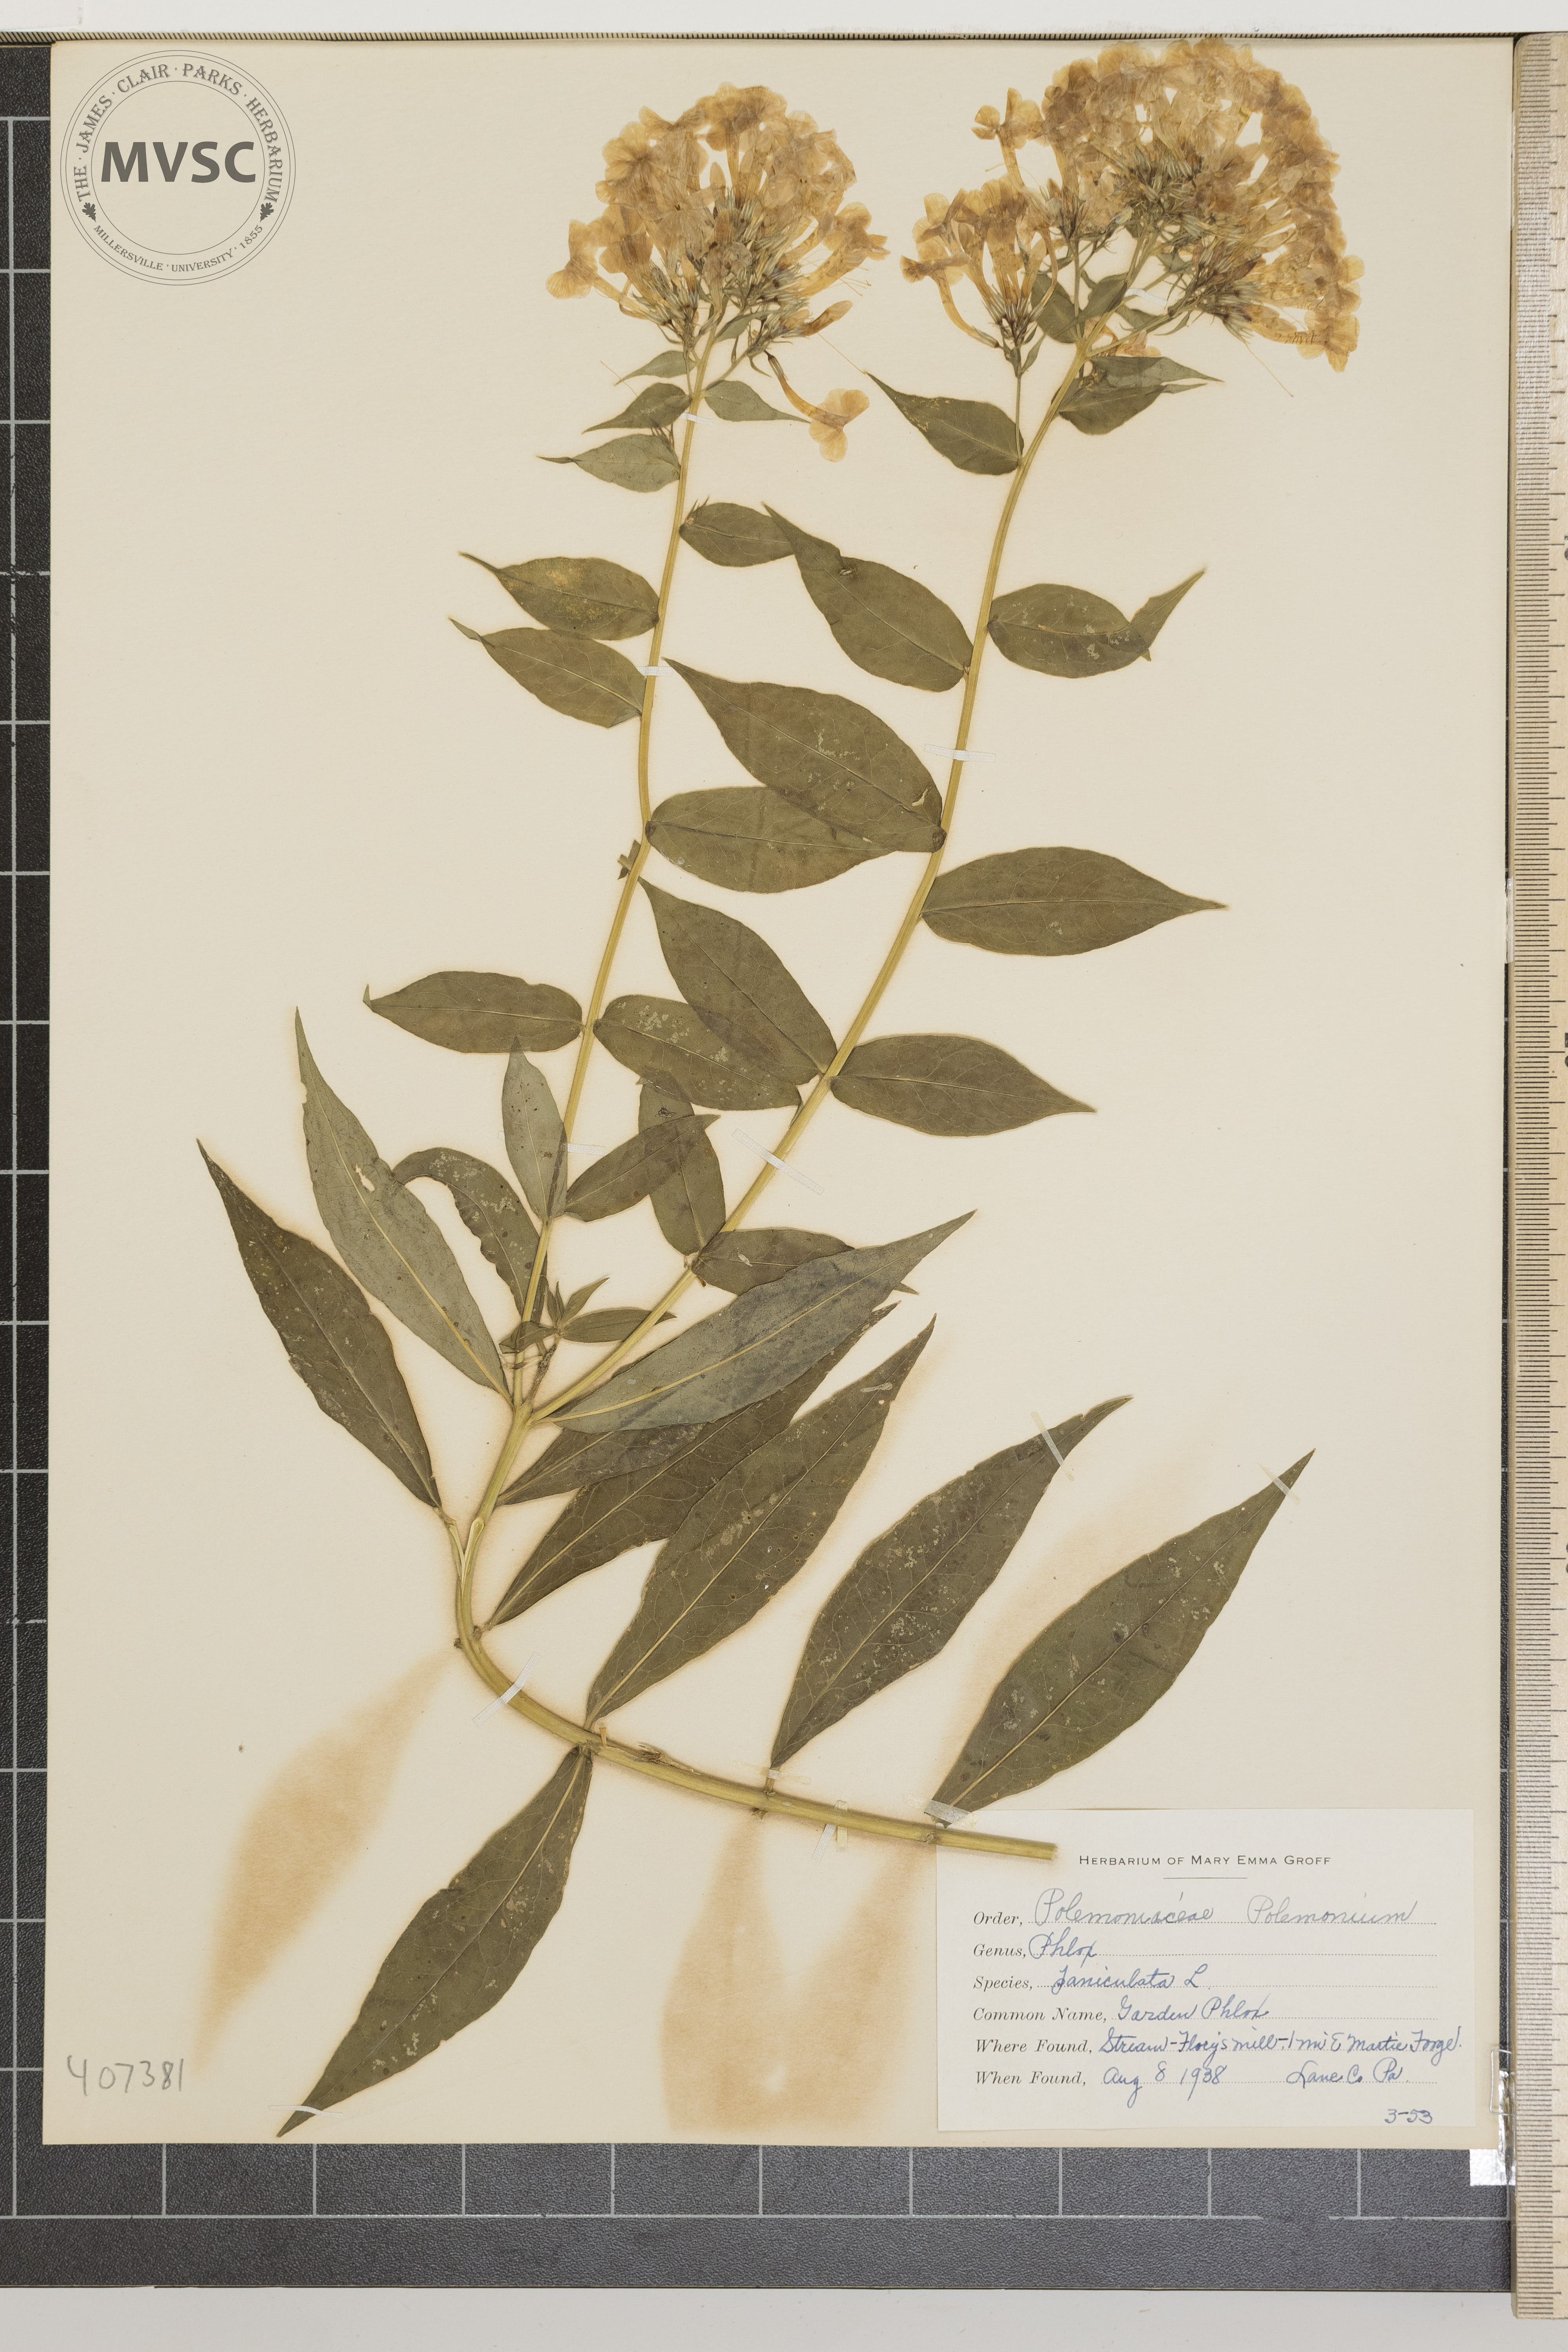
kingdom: Plantae
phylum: Tracheophyta
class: Magnoliopsida
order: Ericales
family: Polemoniaceae
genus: Phlox
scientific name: Phlox paniculata
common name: Garden Phlox
